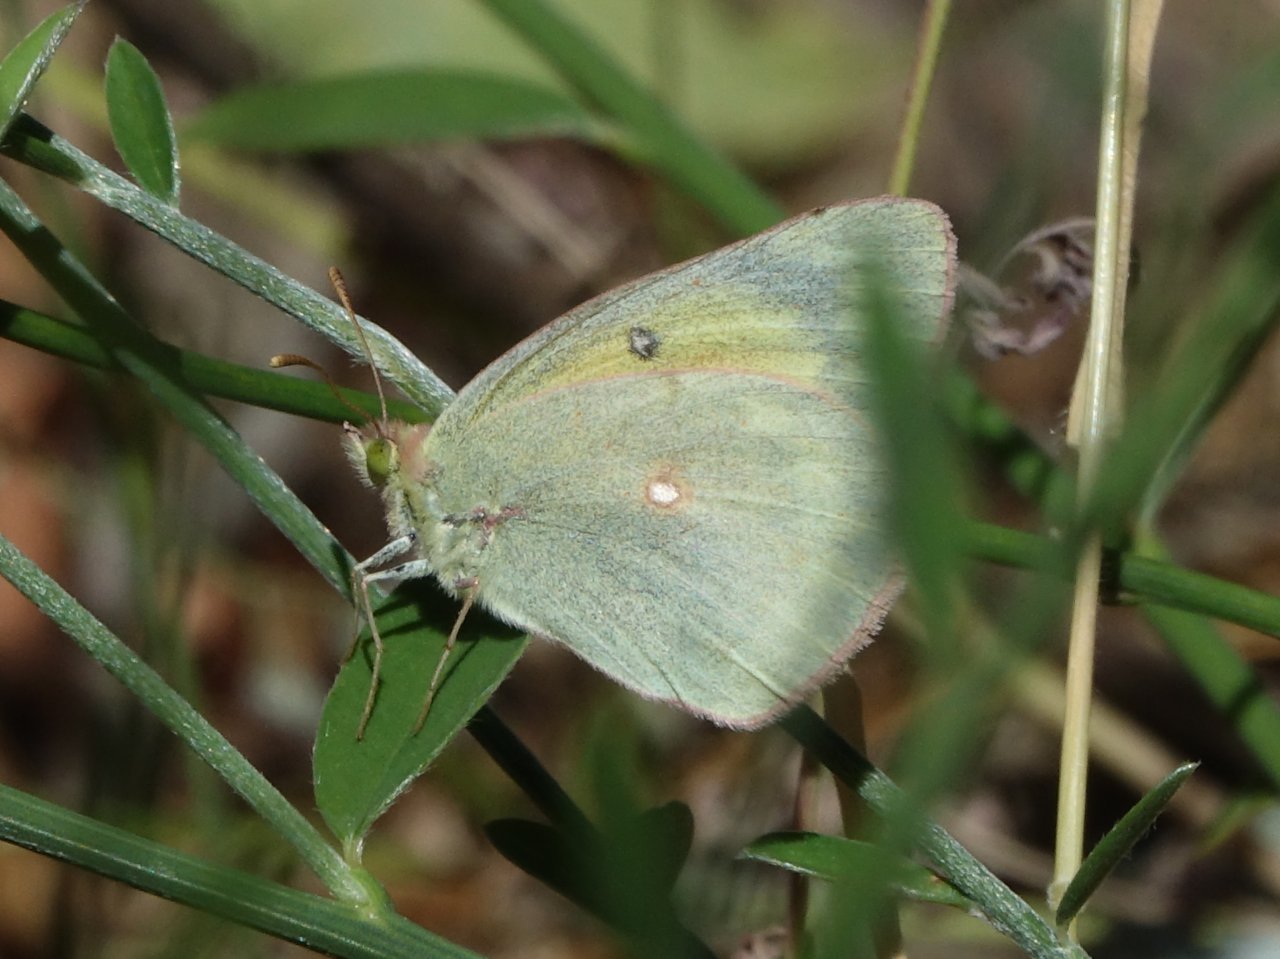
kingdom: Animalia
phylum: Arthropoda
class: Insecta
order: Lepidoptera
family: Pieridae
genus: Colias
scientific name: Colias eurytheme
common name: Orange Sulphur
